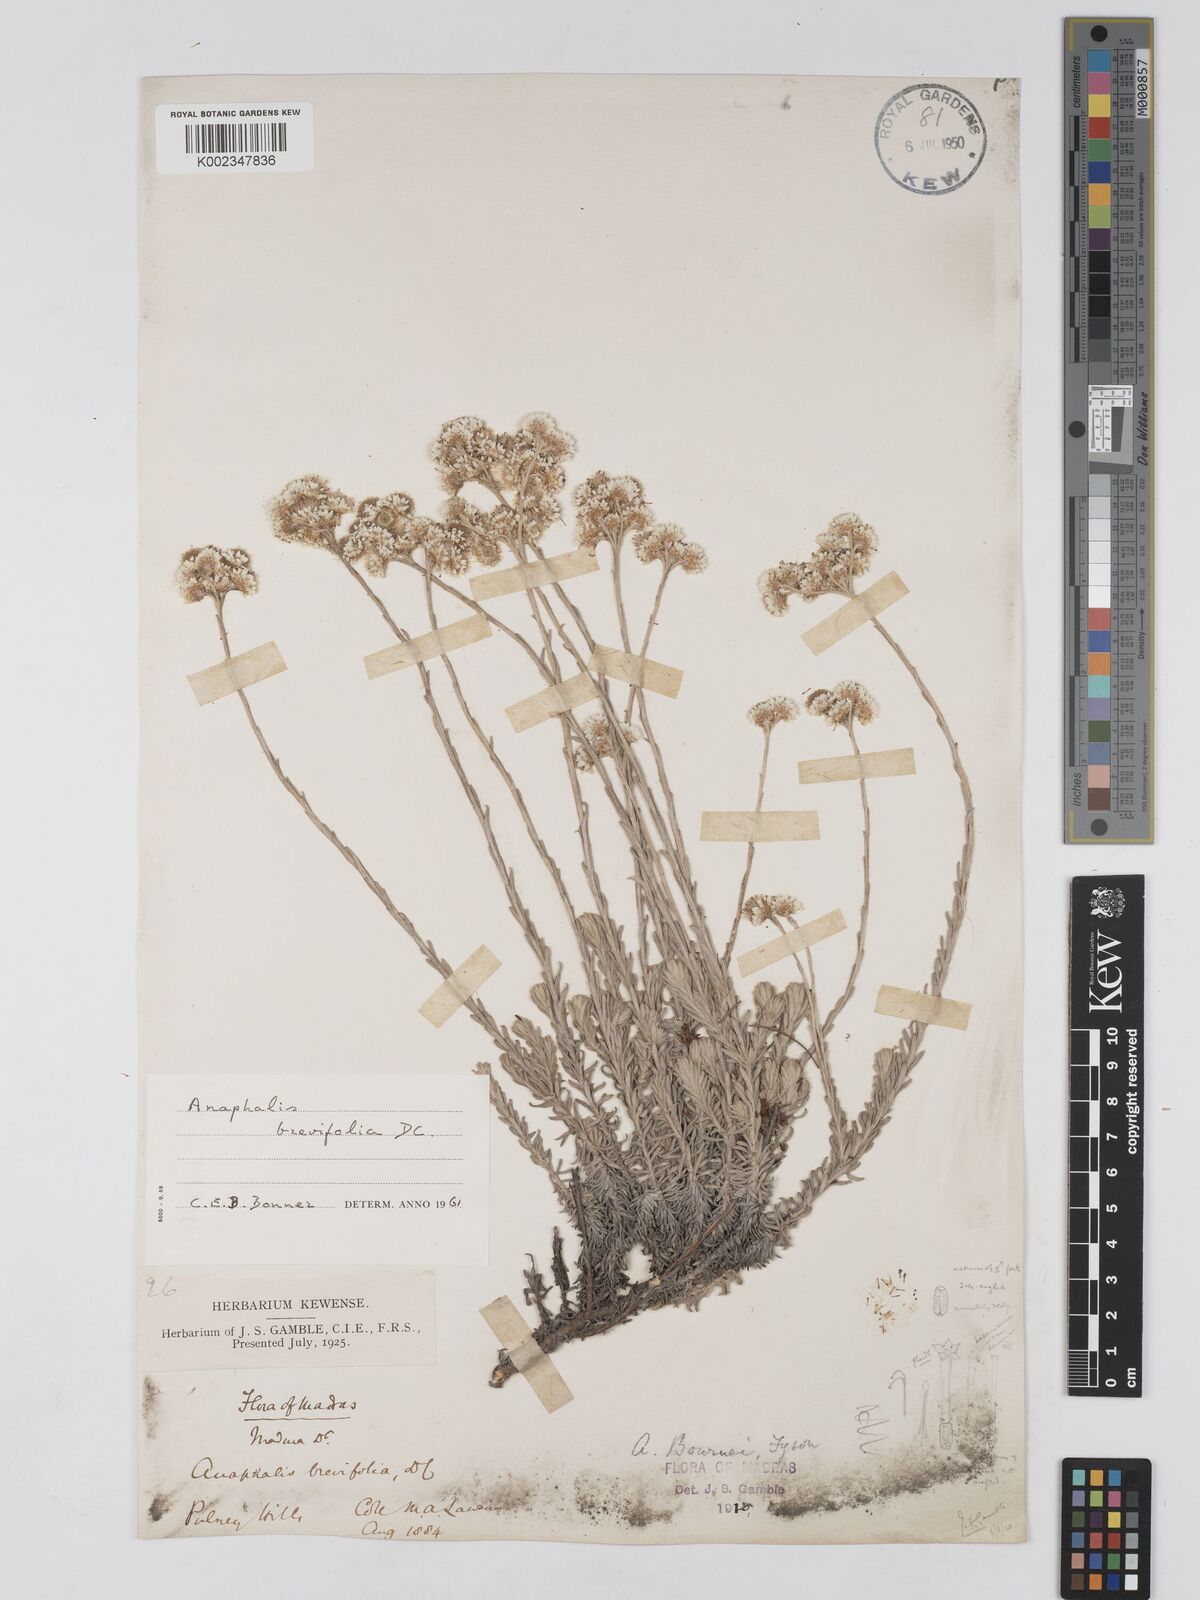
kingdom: Plantae
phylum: Tracheophyta
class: Magnoliopsida
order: Asterales
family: Asteraceae
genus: Anaphalis
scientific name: Anaphalis brevifolia
